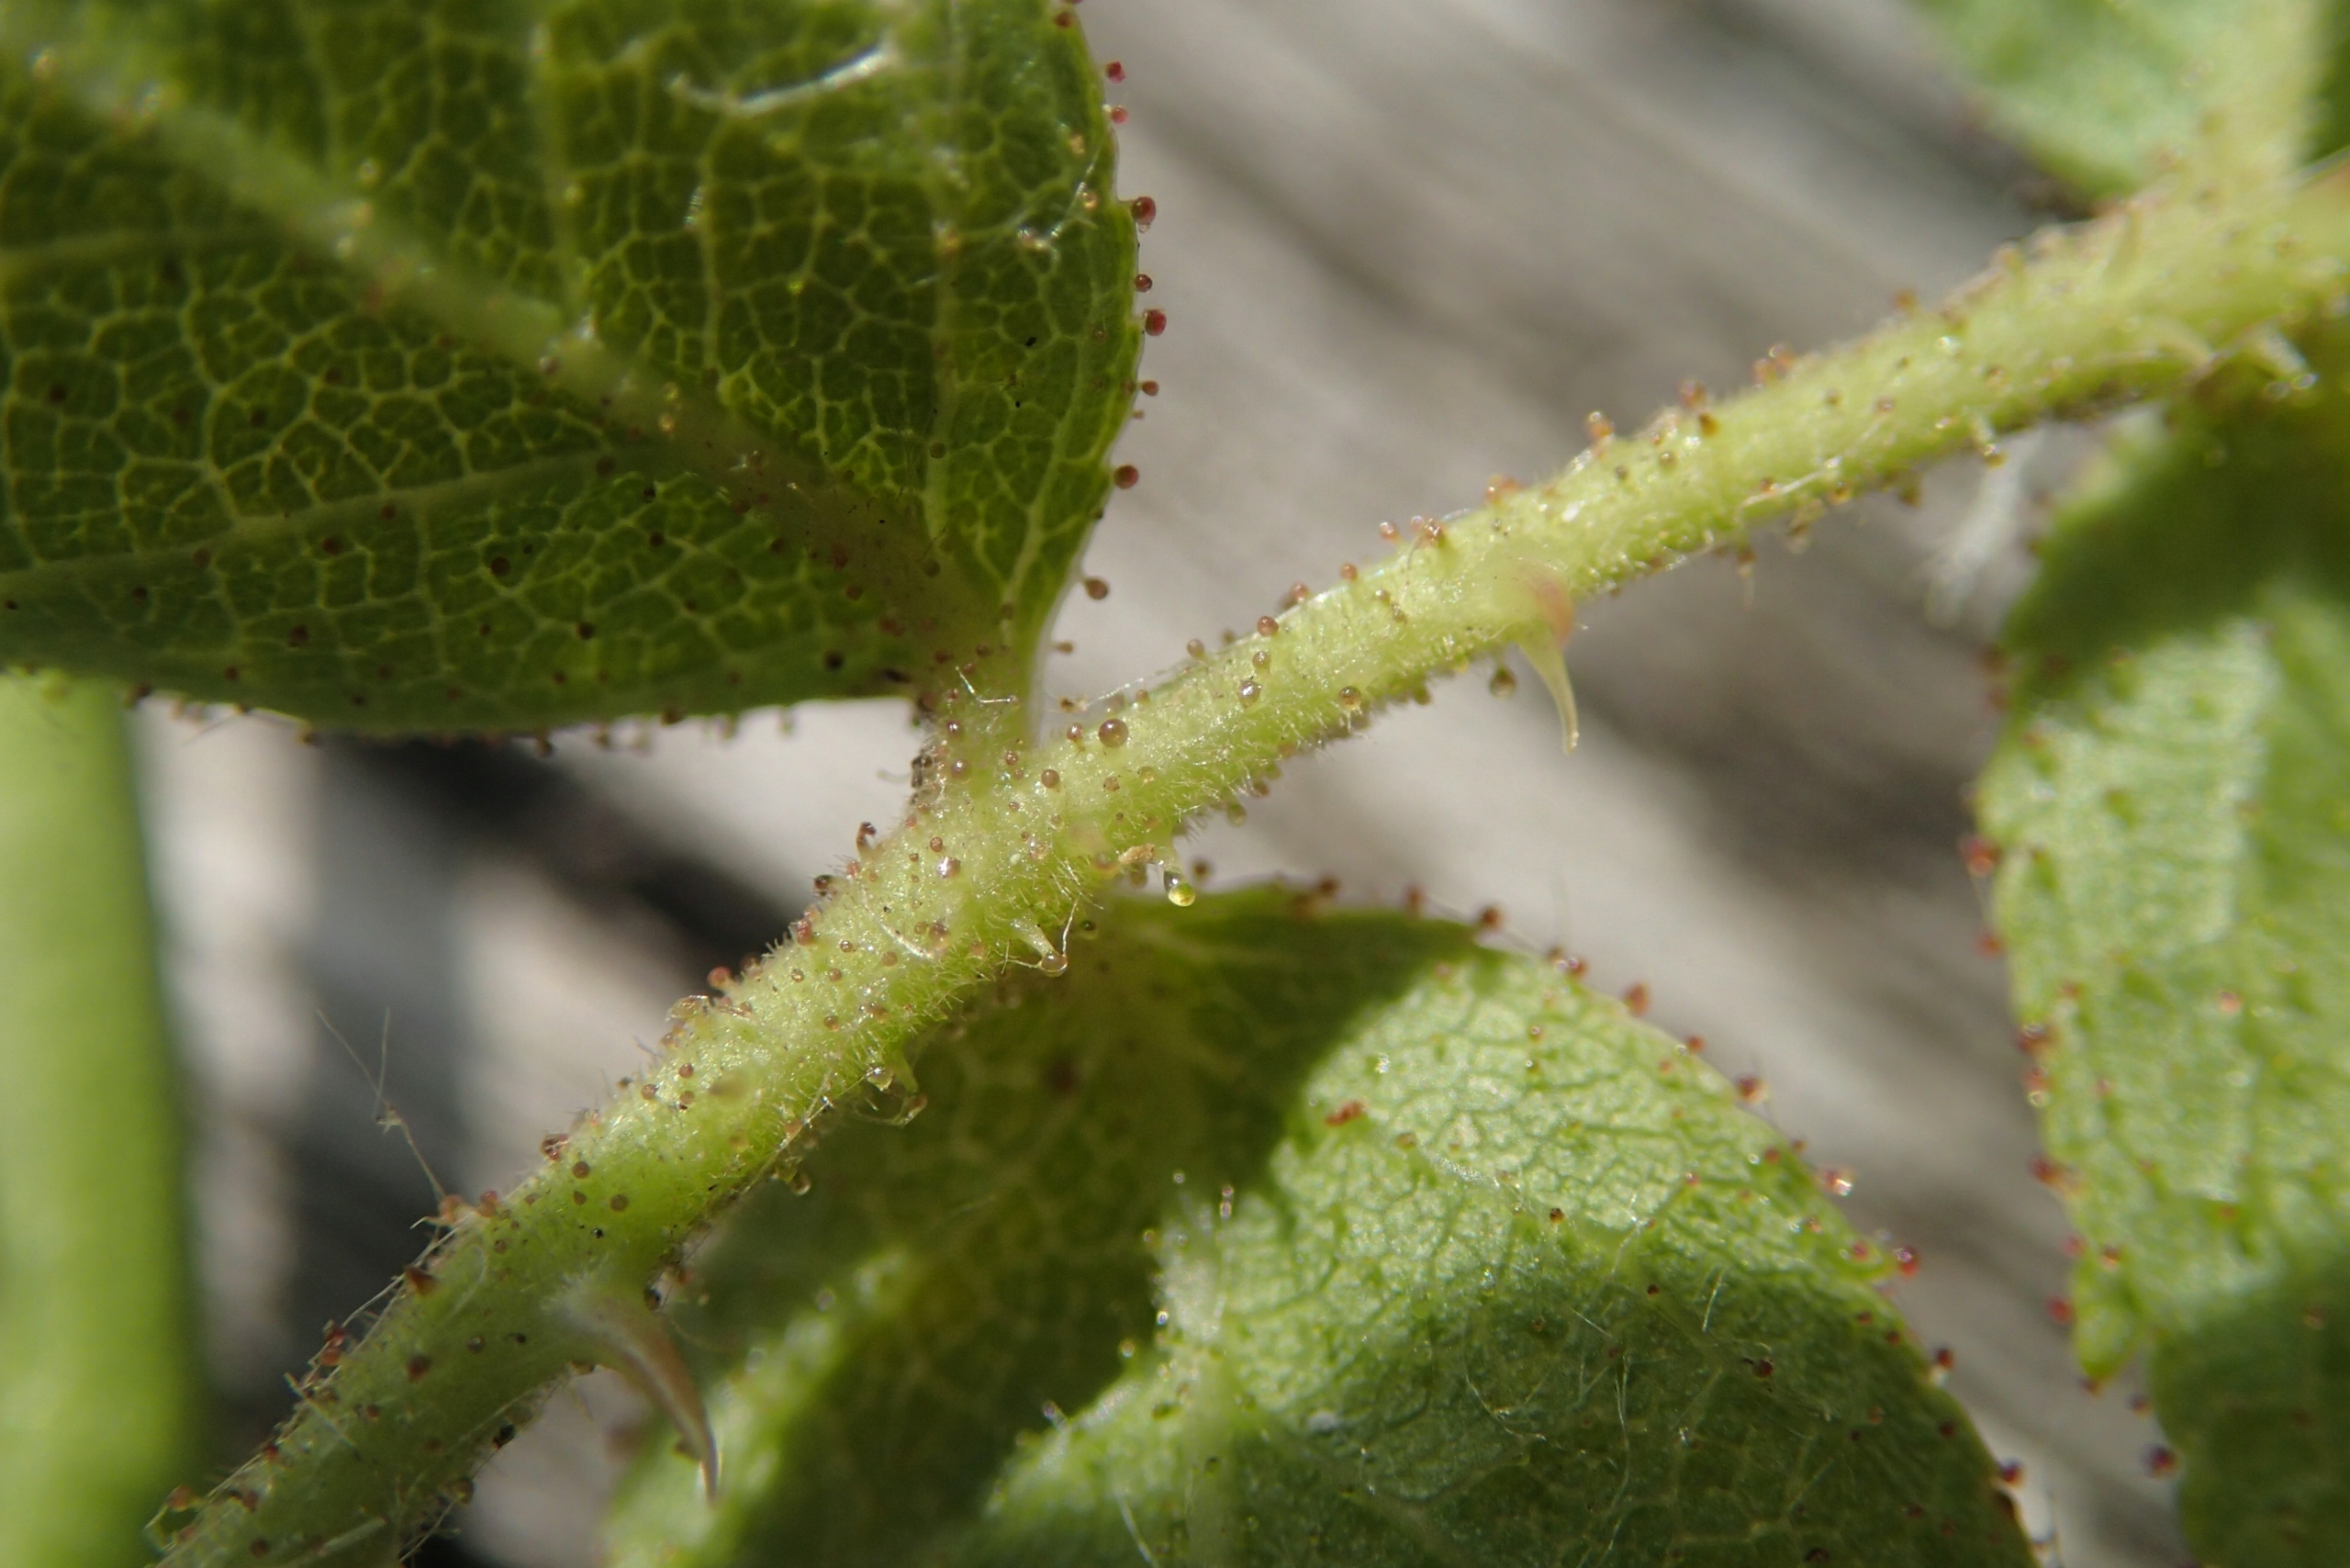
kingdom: Plantae
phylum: Tracheophyta
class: Magnoliopsida
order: Rosales
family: Rosaceae
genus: Rosa
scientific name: Rosa rubiginosa
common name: Æble-rose
